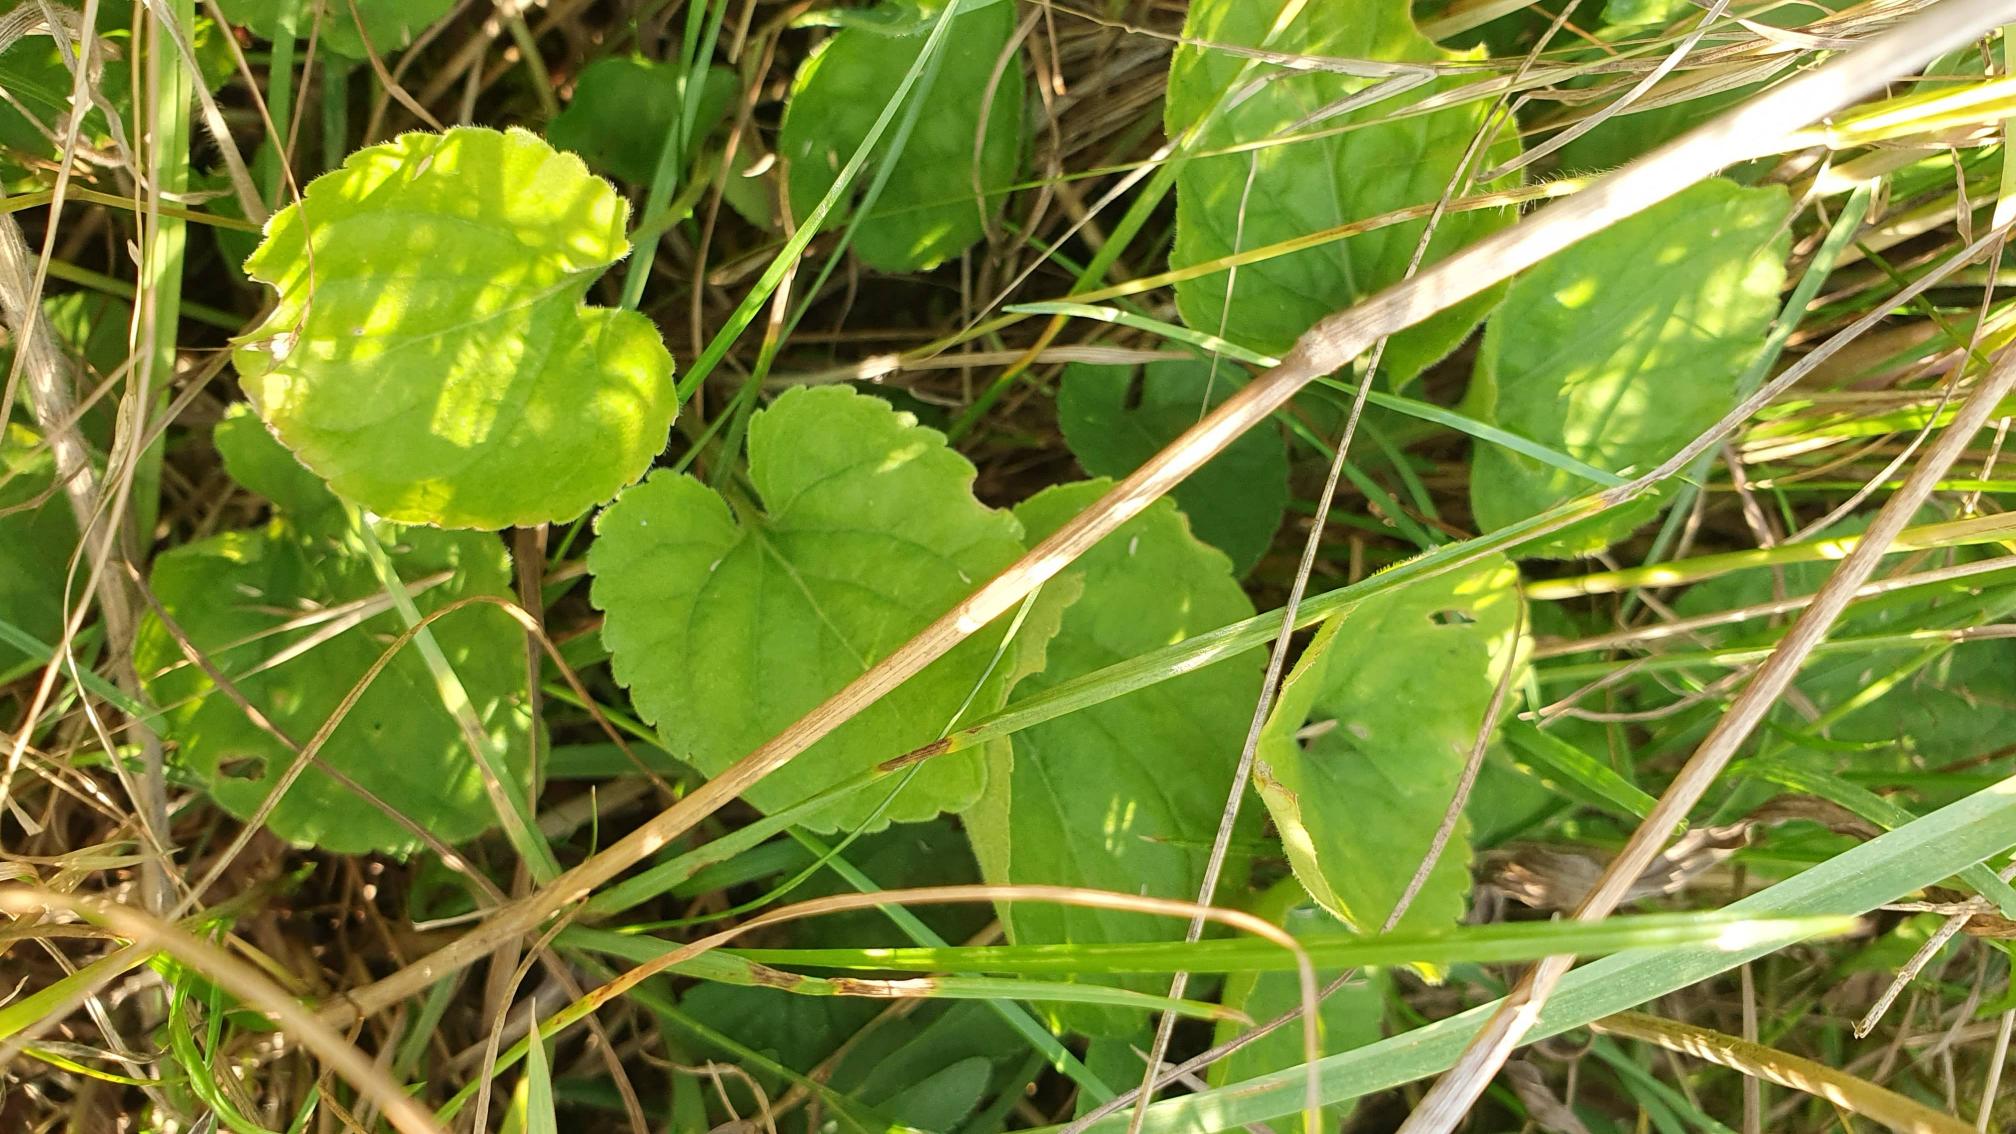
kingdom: Plantae
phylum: Tracheophyta
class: Magnoliopsida
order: Malpighiales
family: Violaceae
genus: Viola
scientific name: Viola odorata
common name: Marts-viol
